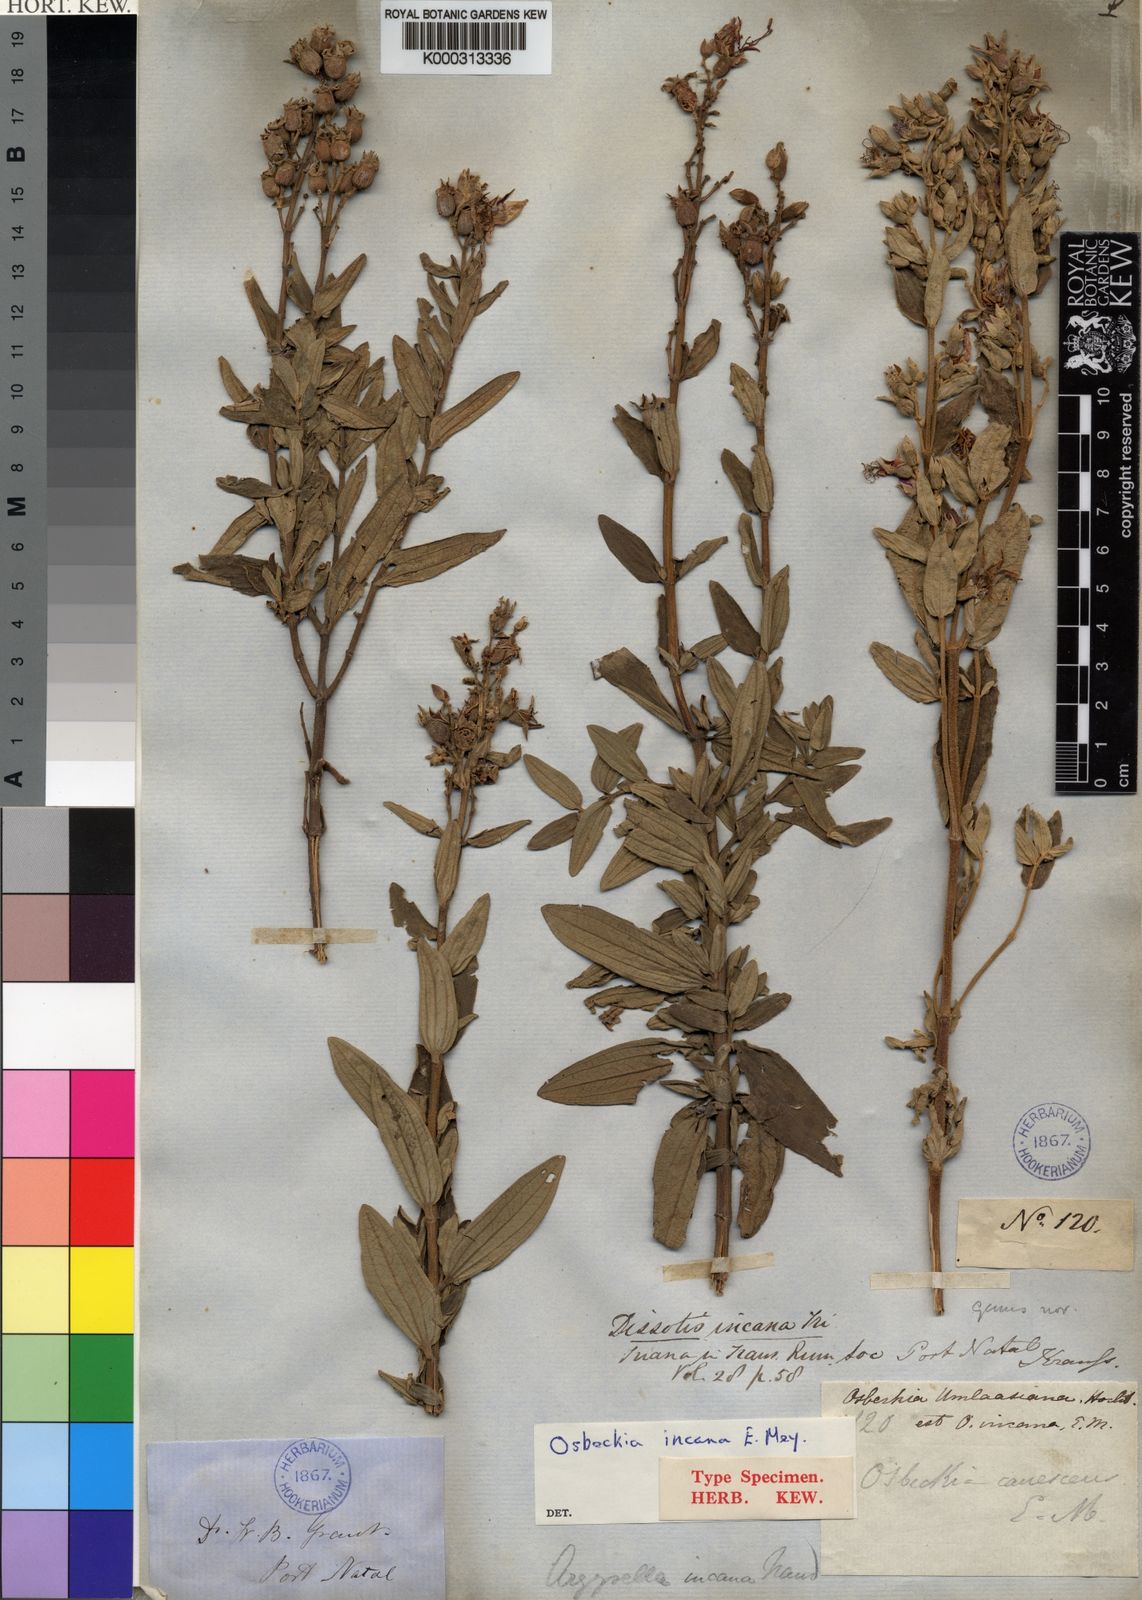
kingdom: Plantae
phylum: Tracheophyta
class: Magnoliopsida
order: Myrtales
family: Melastomataceae
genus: Heterotis
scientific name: Heterotis
